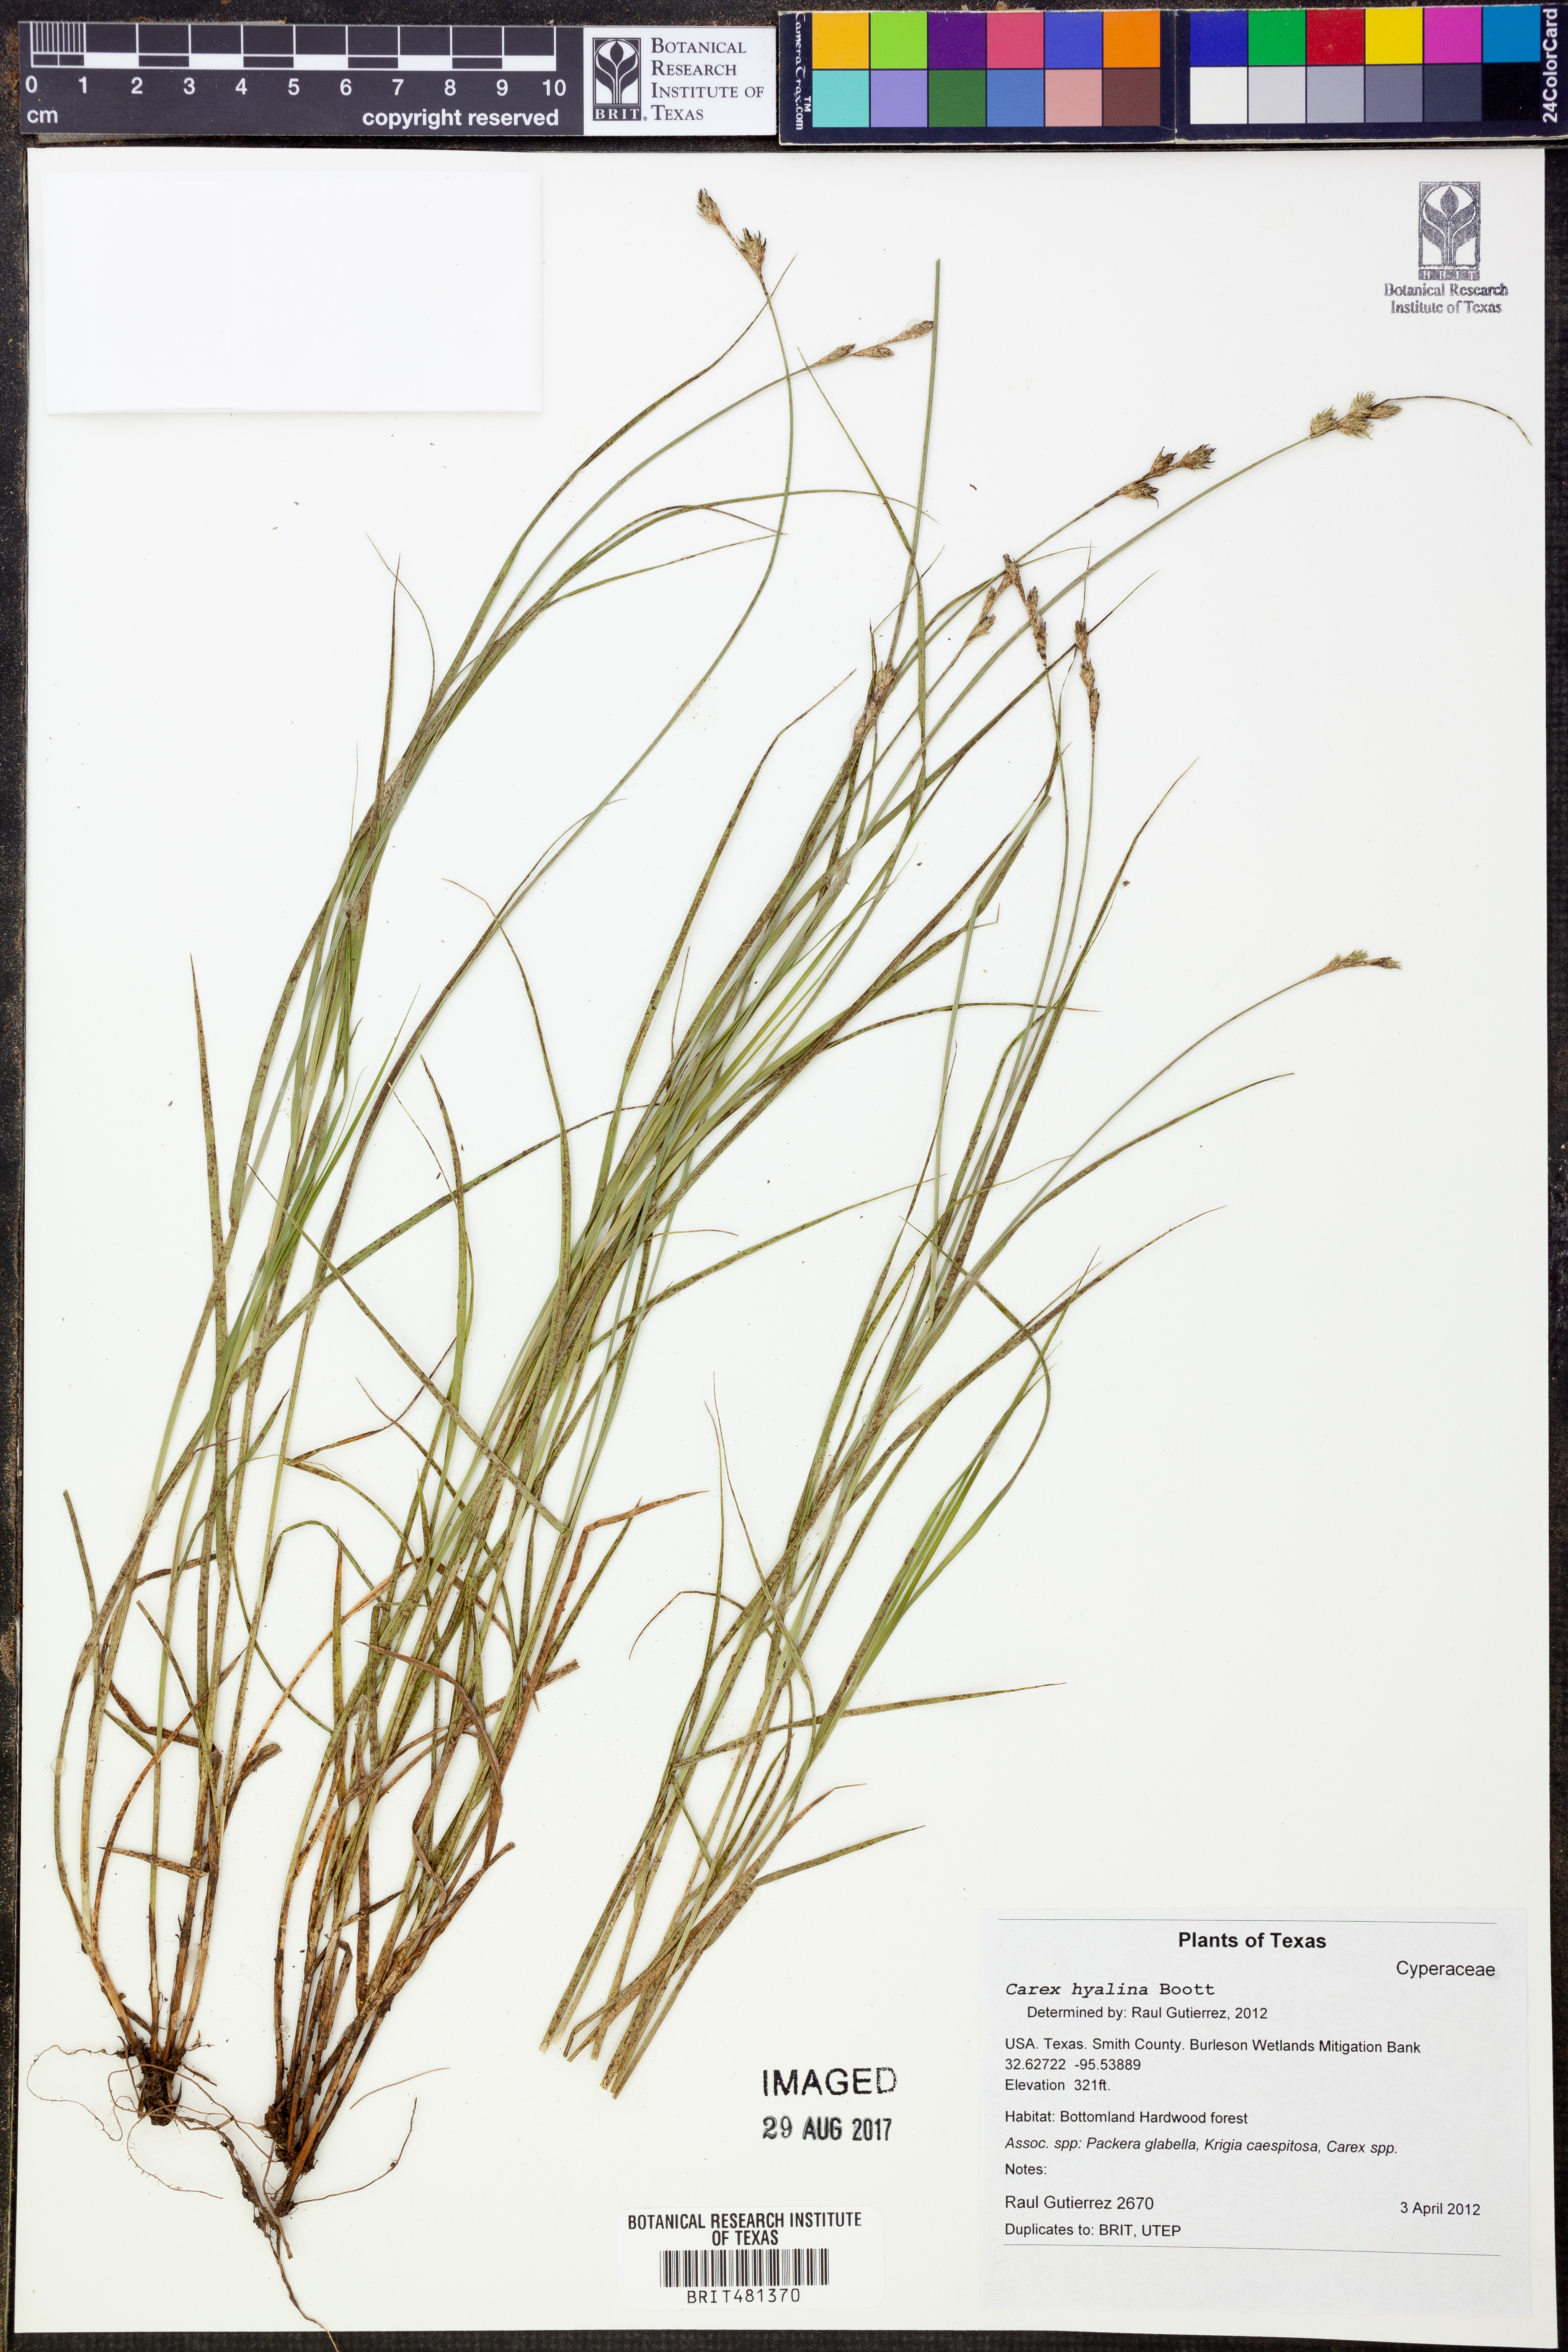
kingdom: Plantae
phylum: Tracheophyta
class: Liliopsida
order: Poales
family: Cyperaceae
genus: Carex
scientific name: Carex hyalina
